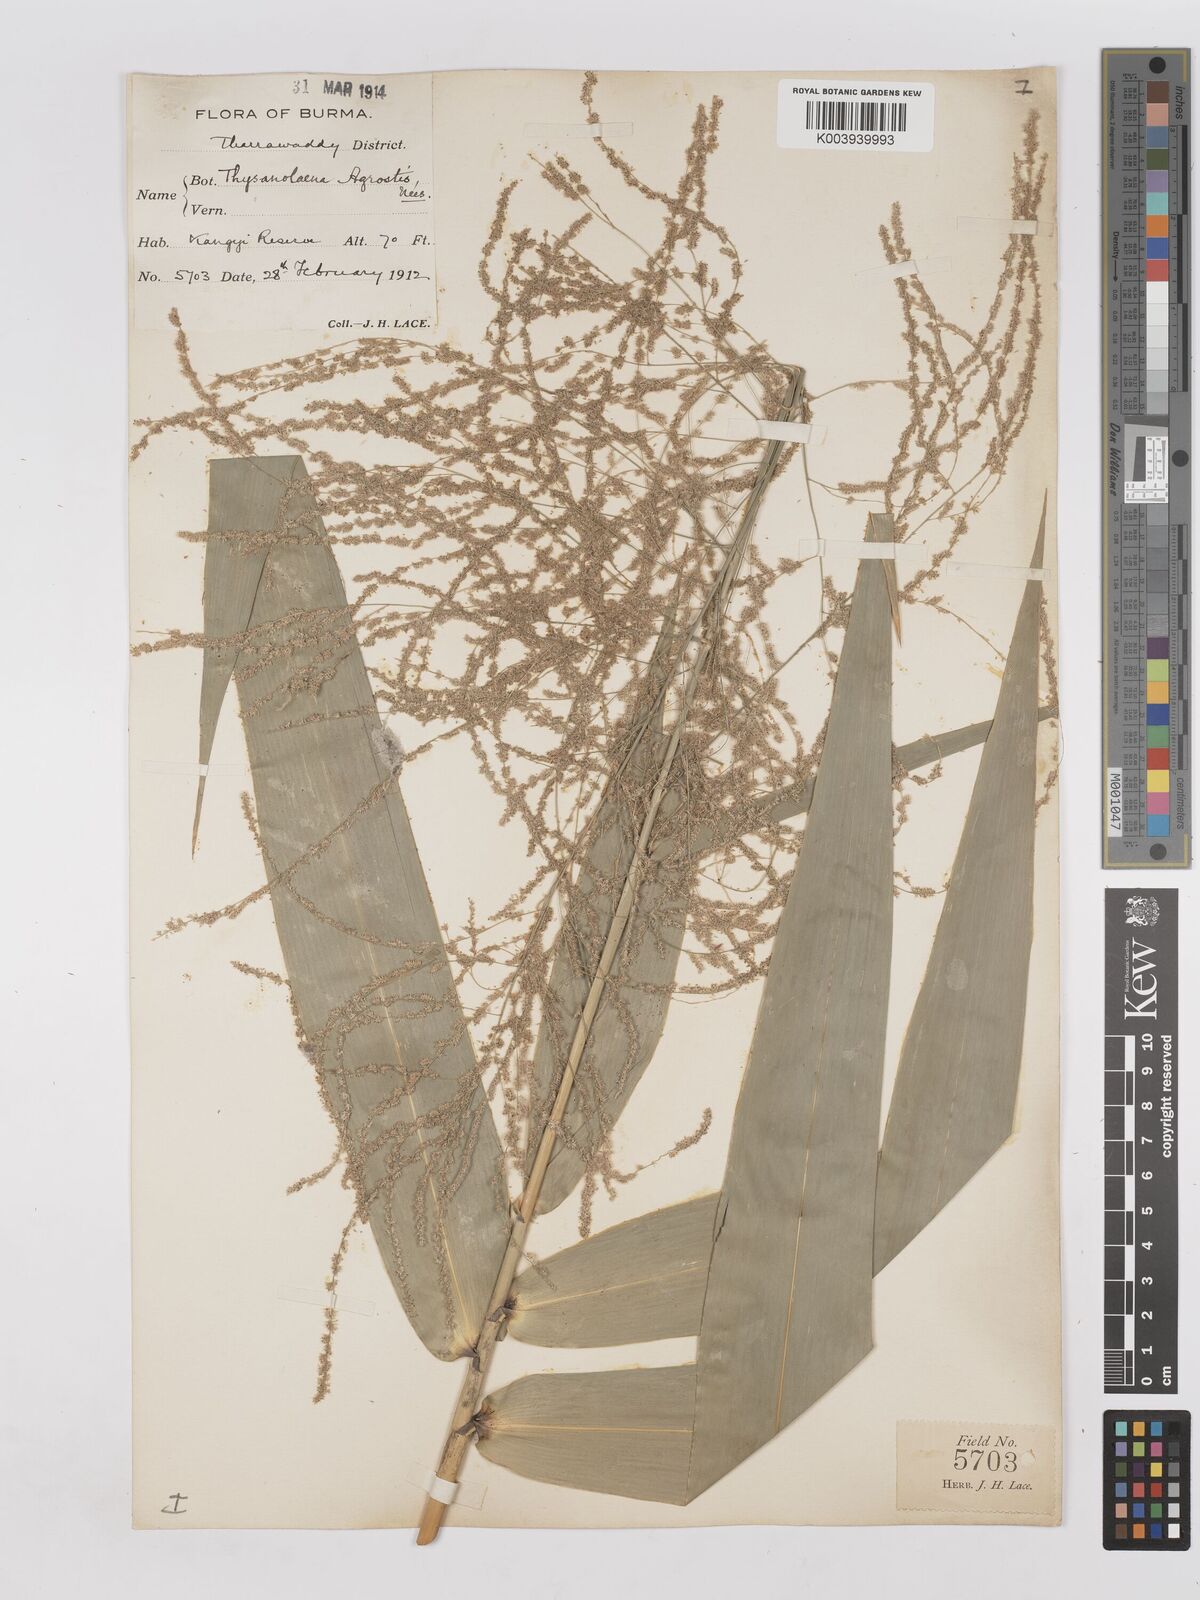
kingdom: Plantae
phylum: Tracheophyta
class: Liliopsida
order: Poales
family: Poaceae
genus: Thysanolaena
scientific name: Thysanolaena latifolia
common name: Tiger grass
